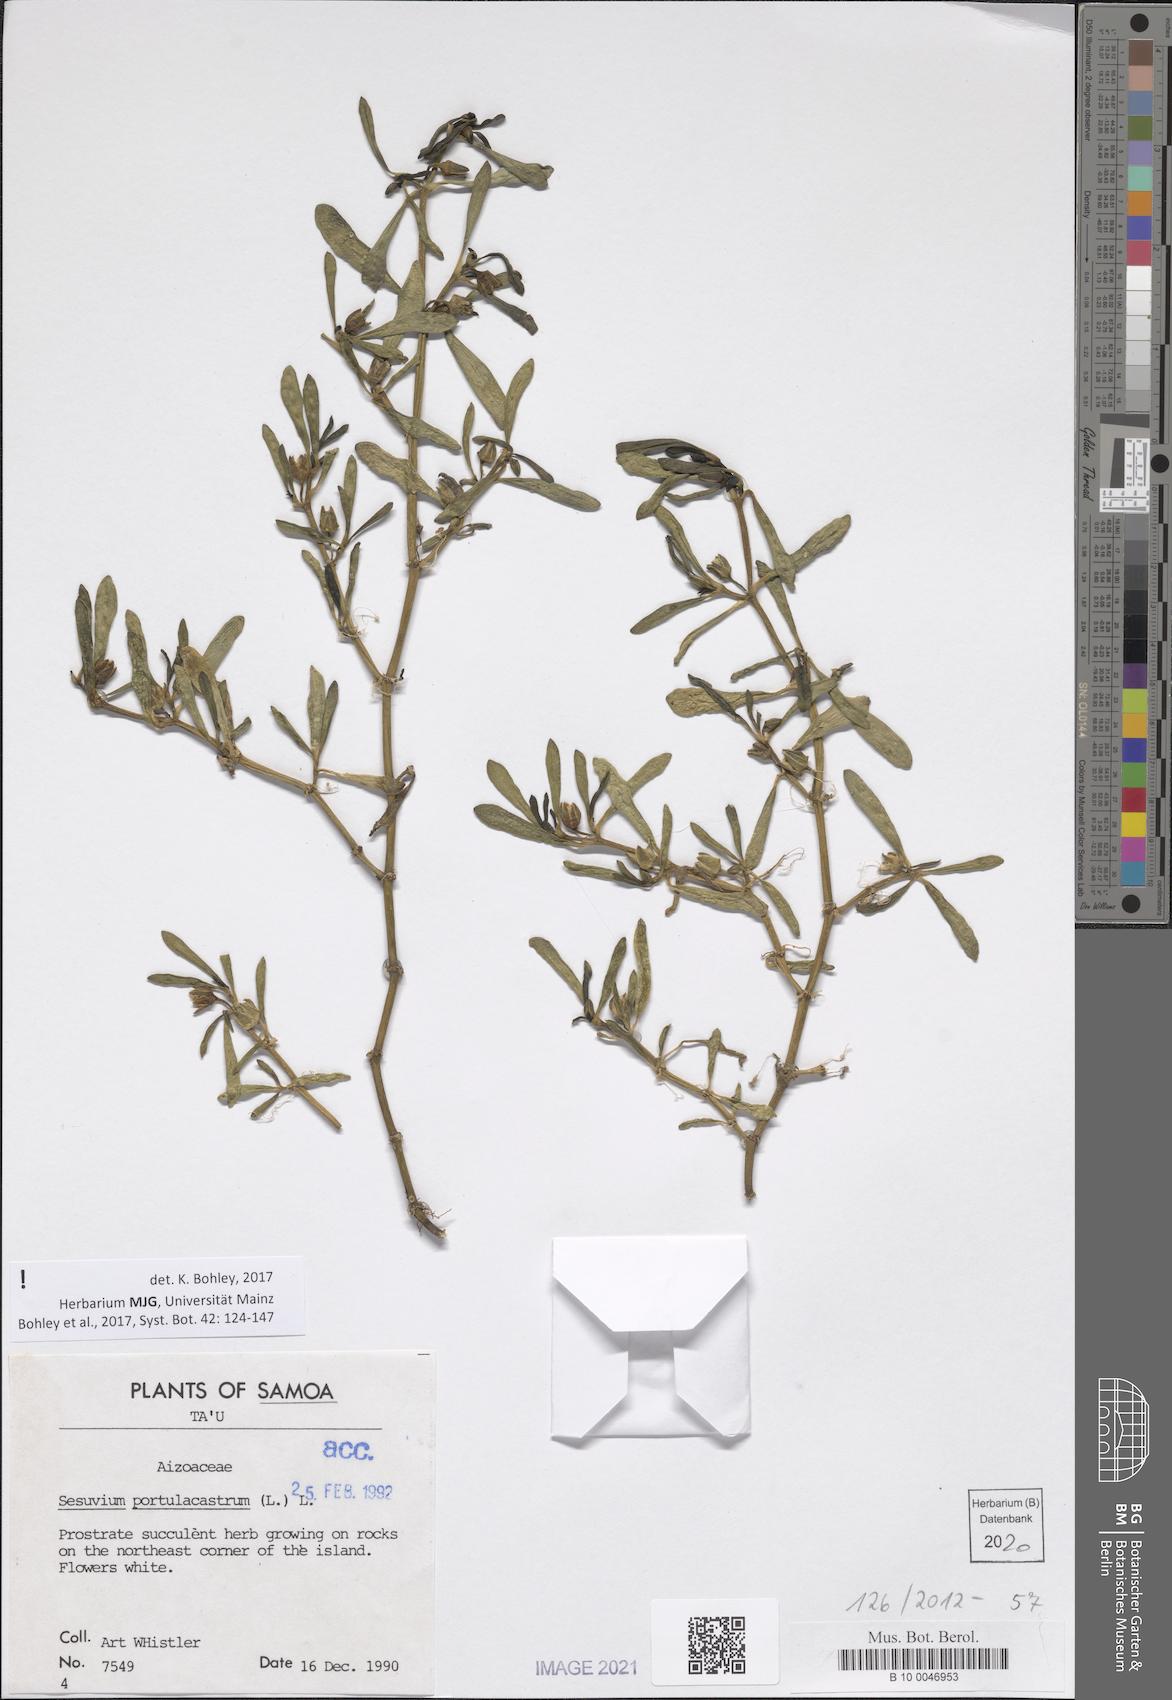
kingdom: Plantae
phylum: Tracheophyta
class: Magnoliopsida
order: Caryophyllales
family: Aizoaceae
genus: Sesuvium
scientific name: Sesuvium portulacastrum
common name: Sea-purslane
